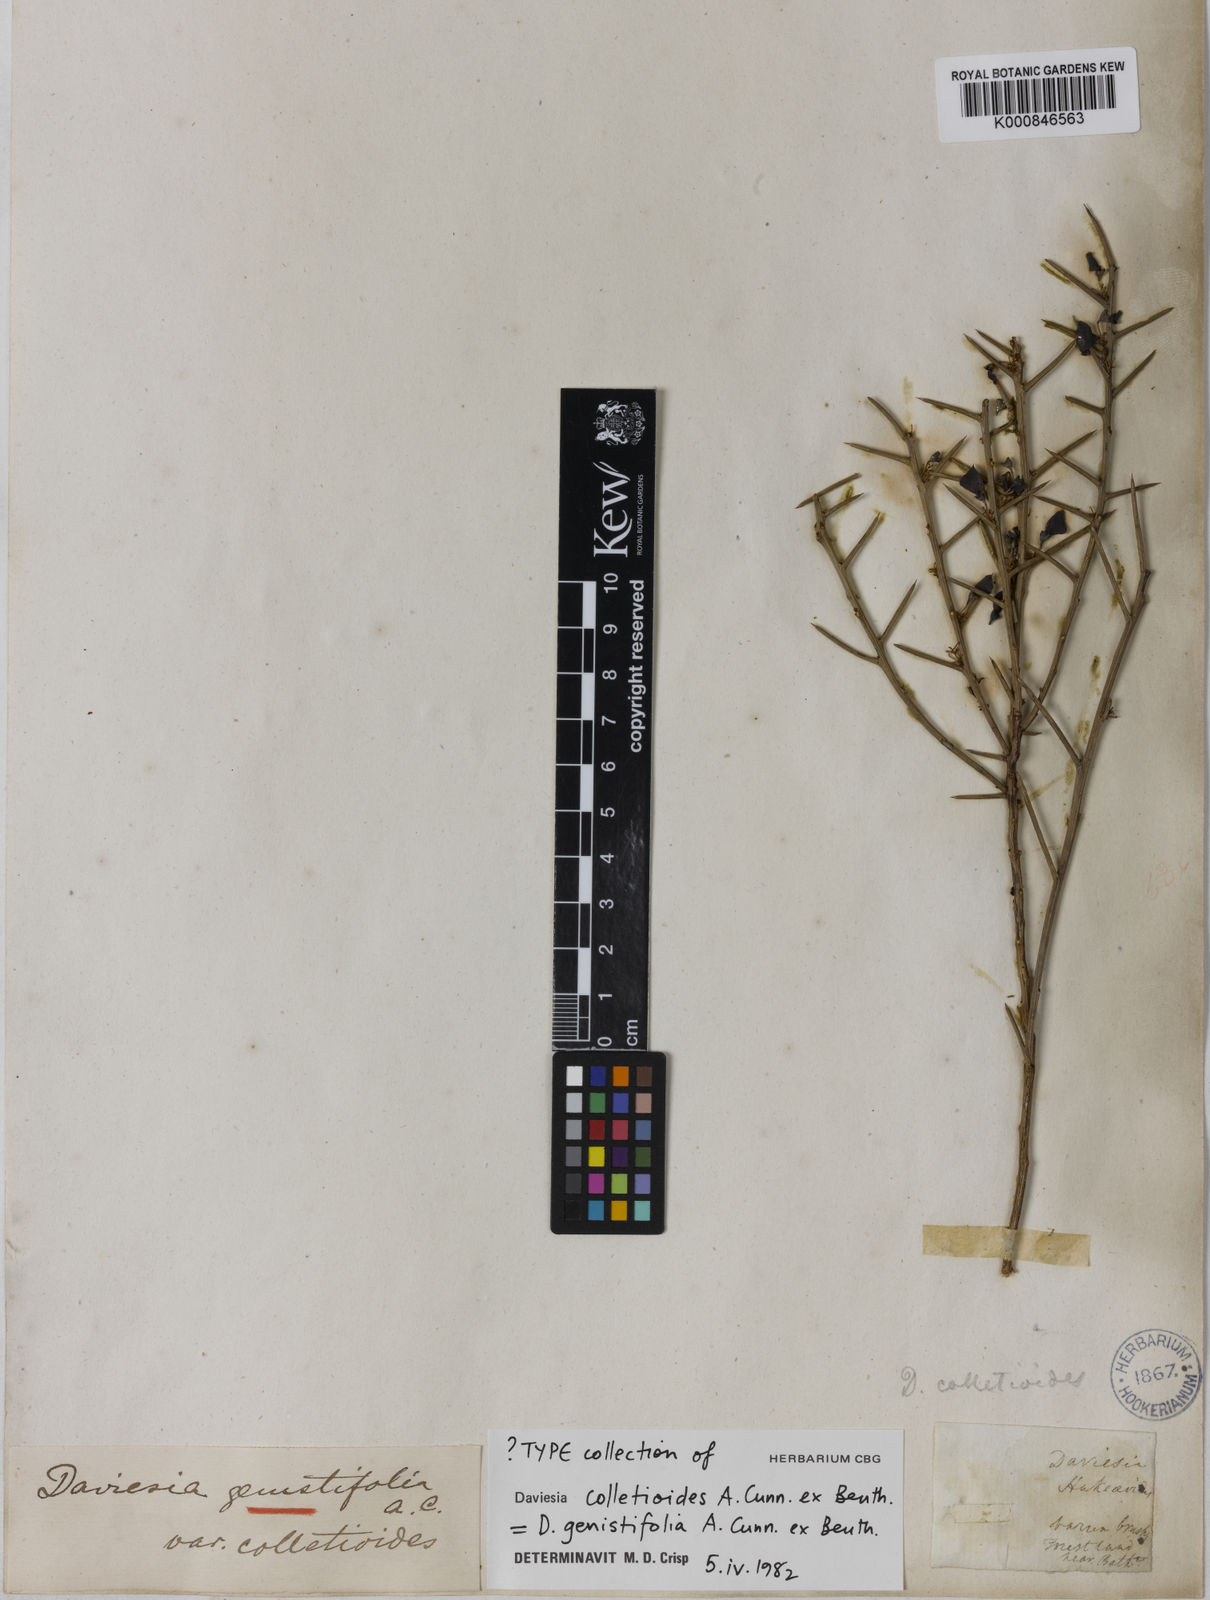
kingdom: Plantae
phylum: Tracheophyta
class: Magnoliopsida
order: Fabales
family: Fabaceae
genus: Daviesia
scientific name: Daviesia genistifolia
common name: Broom bitter-pea
